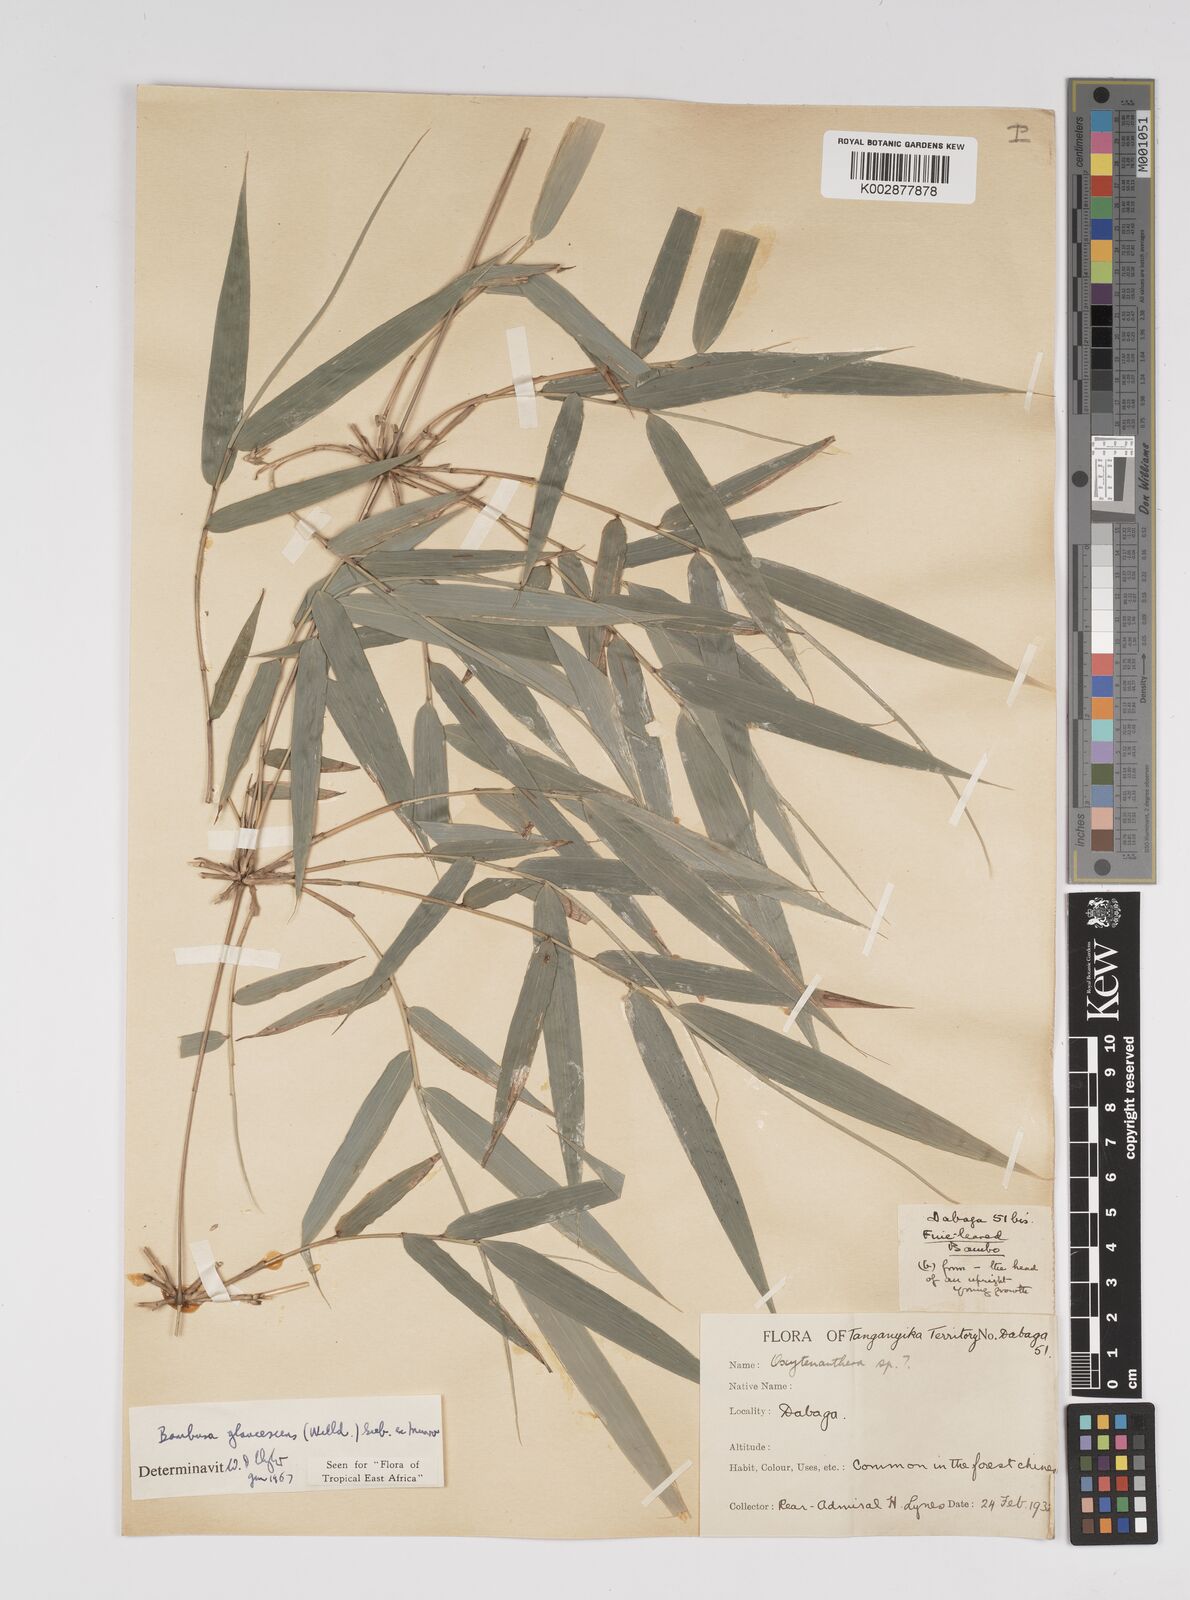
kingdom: Plantae
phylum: Tracheophyta
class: Liliopsida
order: Poales
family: Poaceae
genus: Bambusa
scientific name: Bambusa multiplex
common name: Hedge bamboo
